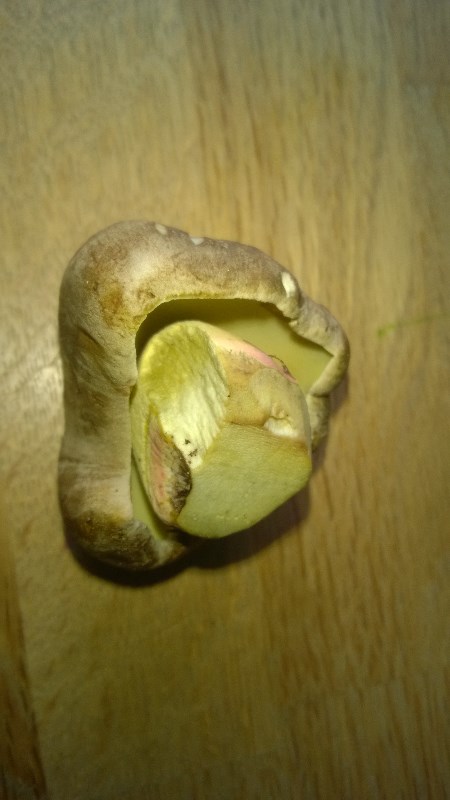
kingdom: Fungi
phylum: Basidiomycota
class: Agaricomycetes
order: Boletales
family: Boletaceae
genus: Caloboletus
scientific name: Caloboletus calopus
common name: skønfodet rørhat
